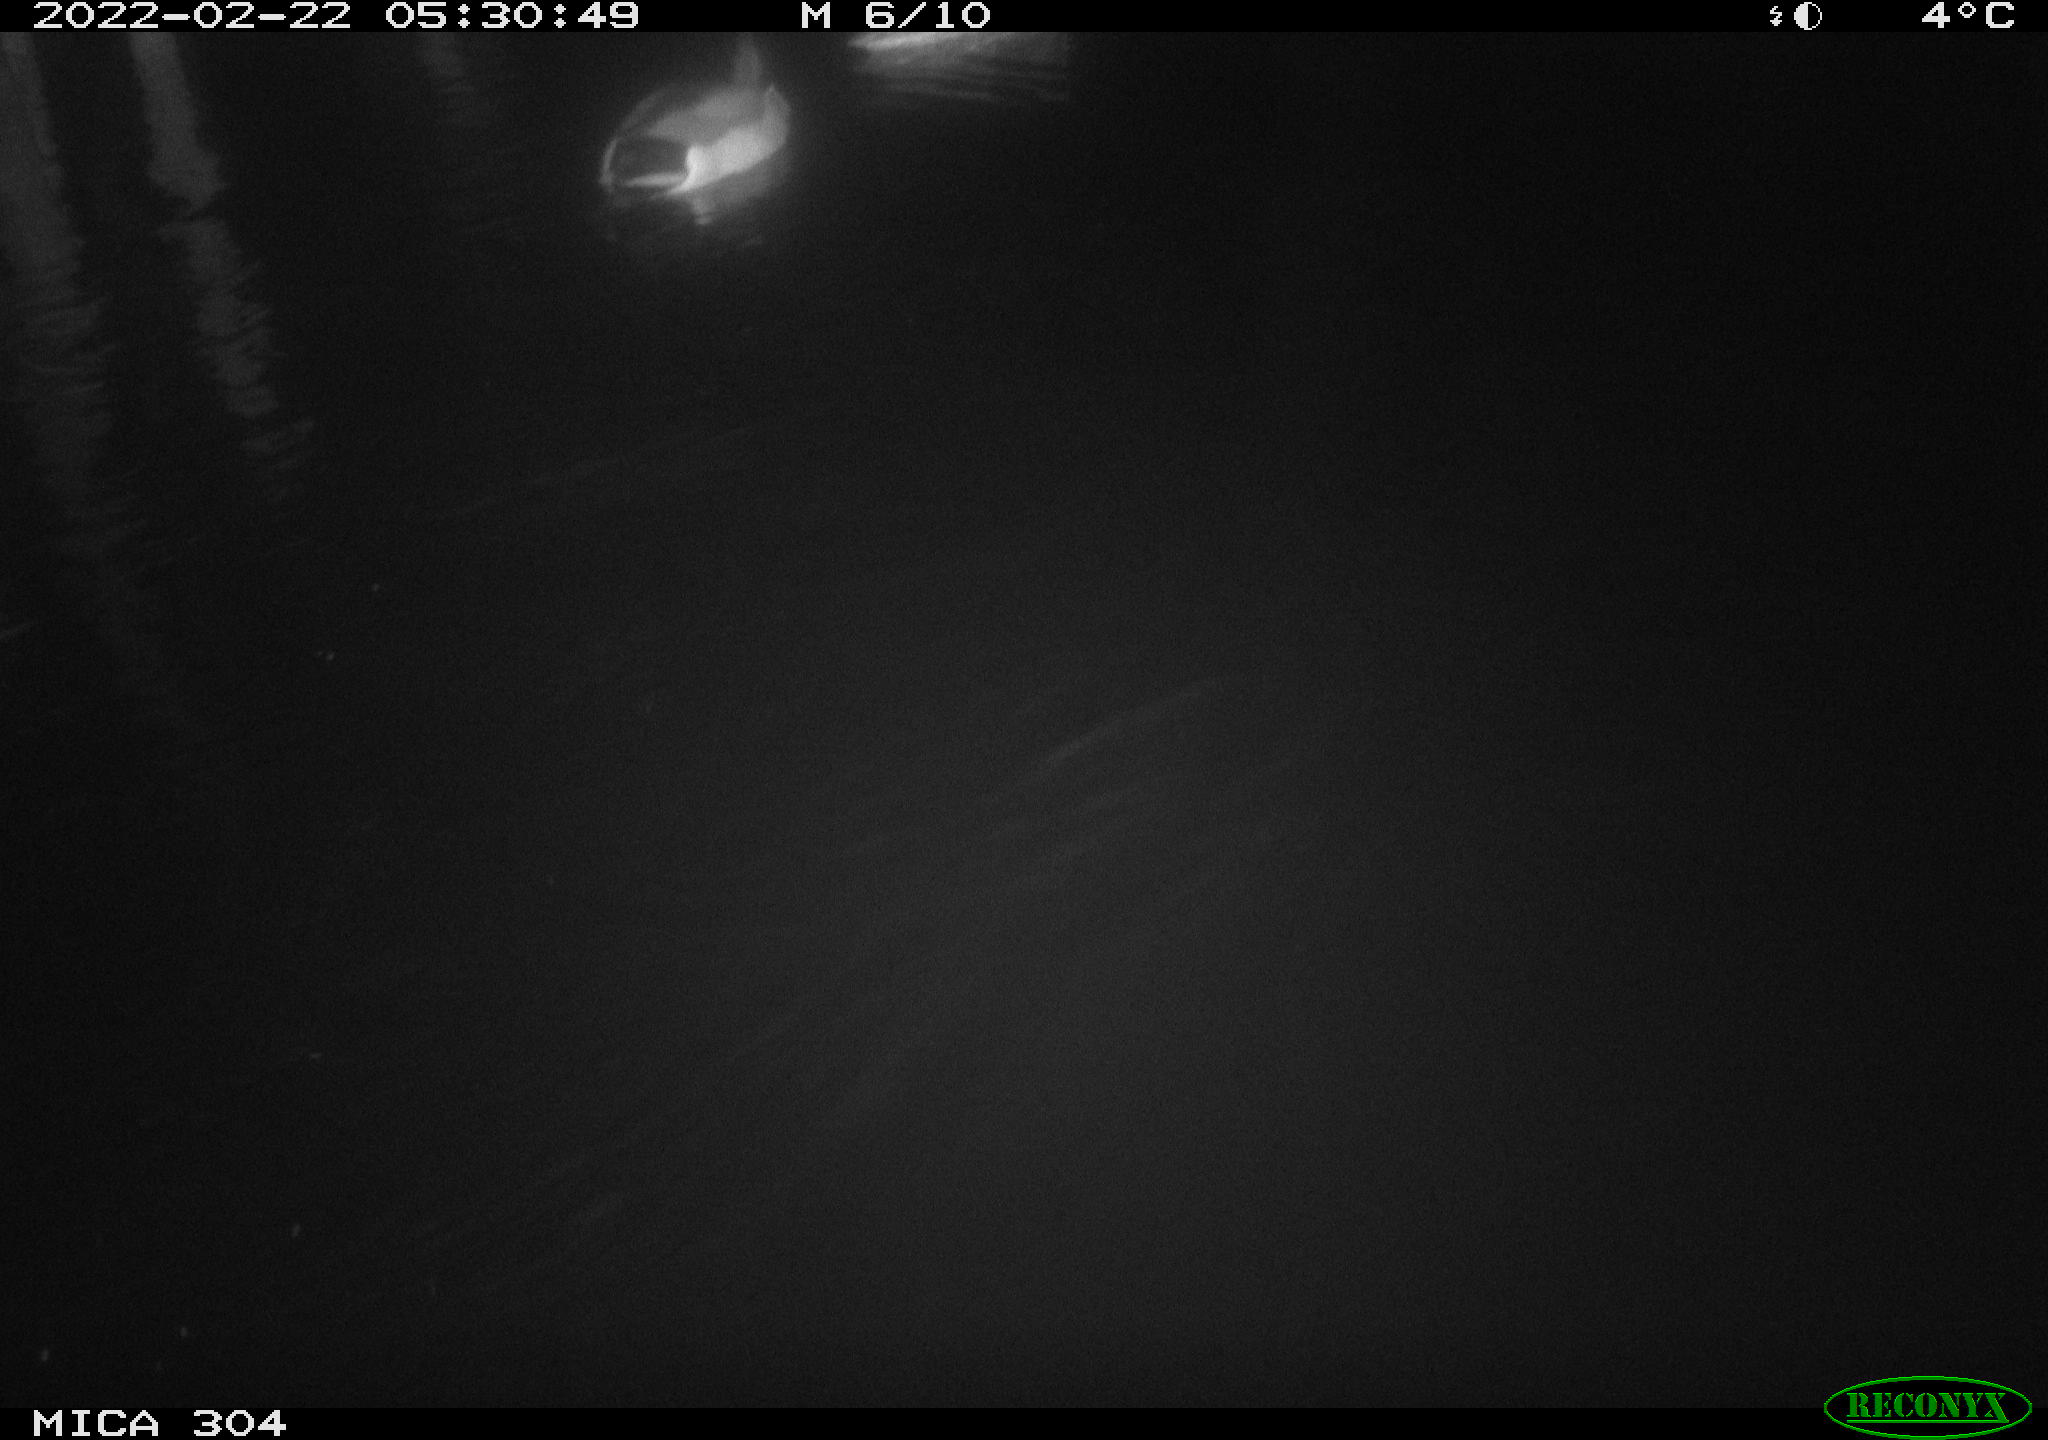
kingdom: Animalia
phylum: Chordata
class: Aves
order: Anseriformes
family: Anatidae
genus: Anas
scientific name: Anas platyrhynchos
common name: Mallard
